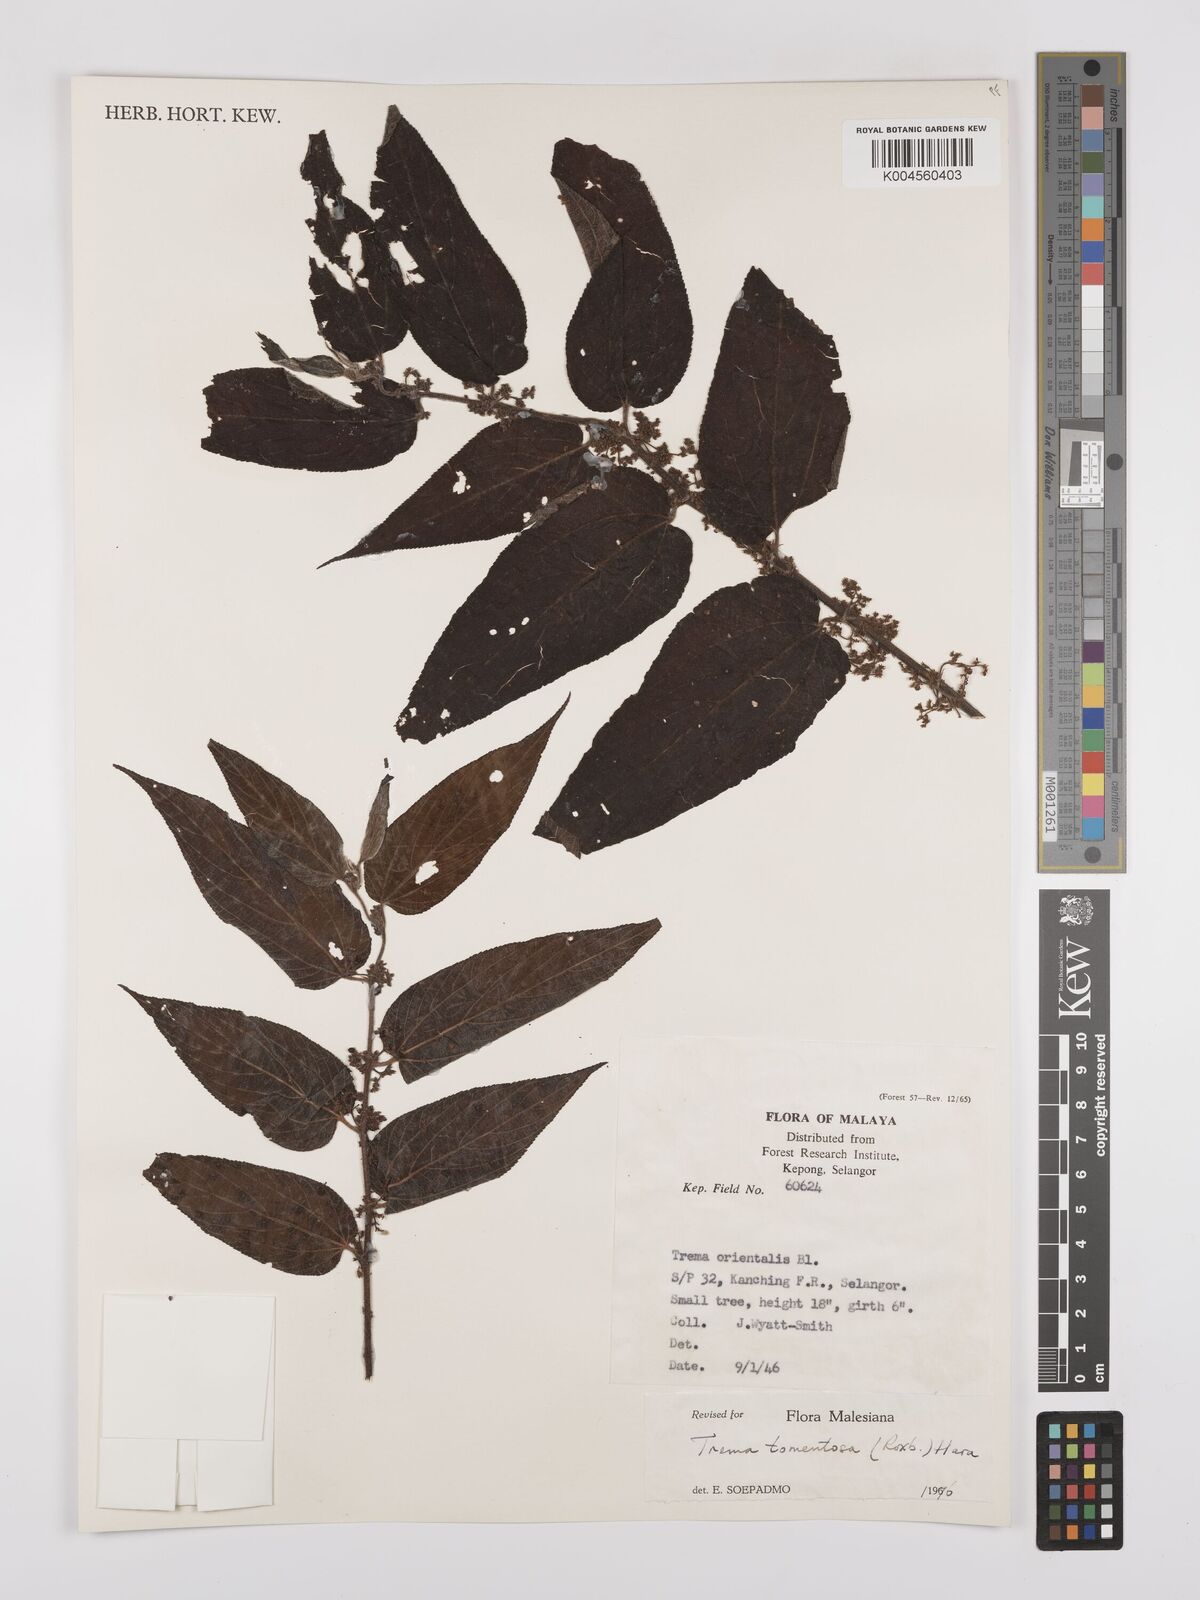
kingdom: Plantae
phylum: Tracheophyta
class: Magnoliopsida
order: Rosales
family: Cannabaceae
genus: Trema
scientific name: Trema tomentosum
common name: Peach-leaf-poisonbush
